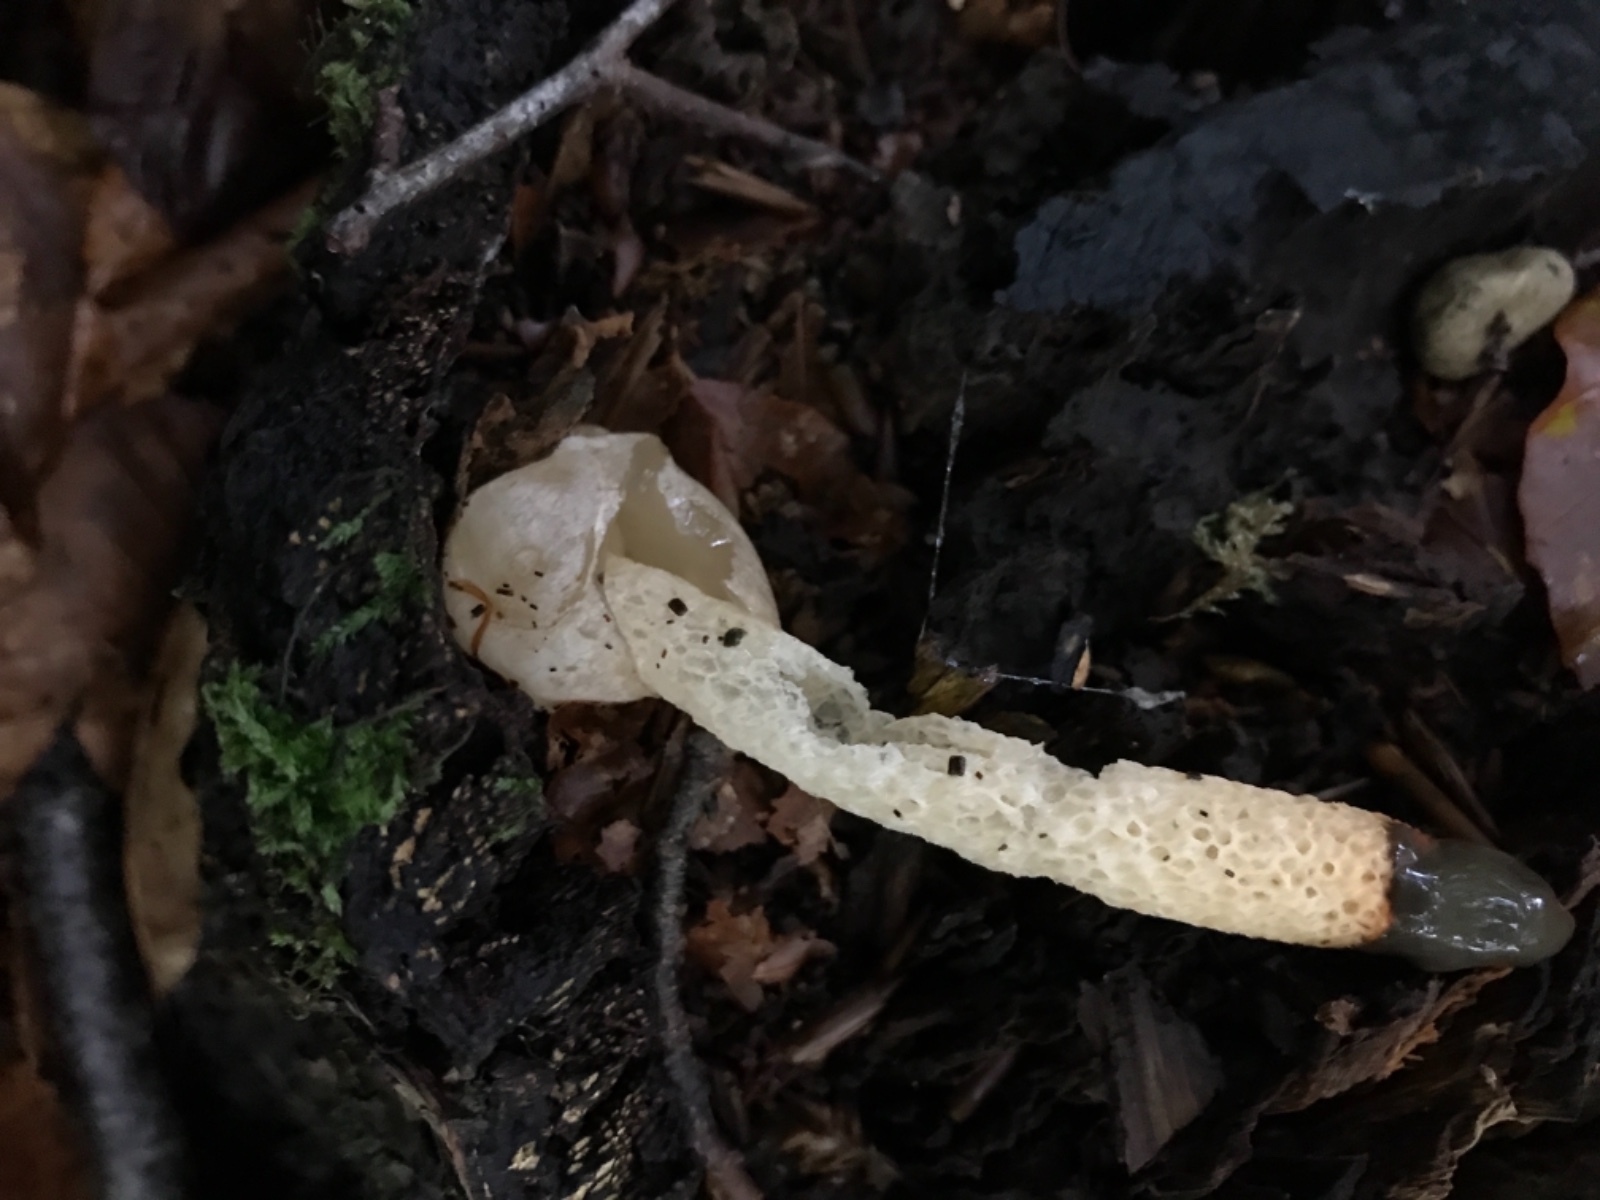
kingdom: Fungi
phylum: Basidiomycota
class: Agaricomycetes
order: Phallales
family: Phallaceae
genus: Mutinus
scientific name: Mutinus caninus
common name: hunde-stinksvamp
